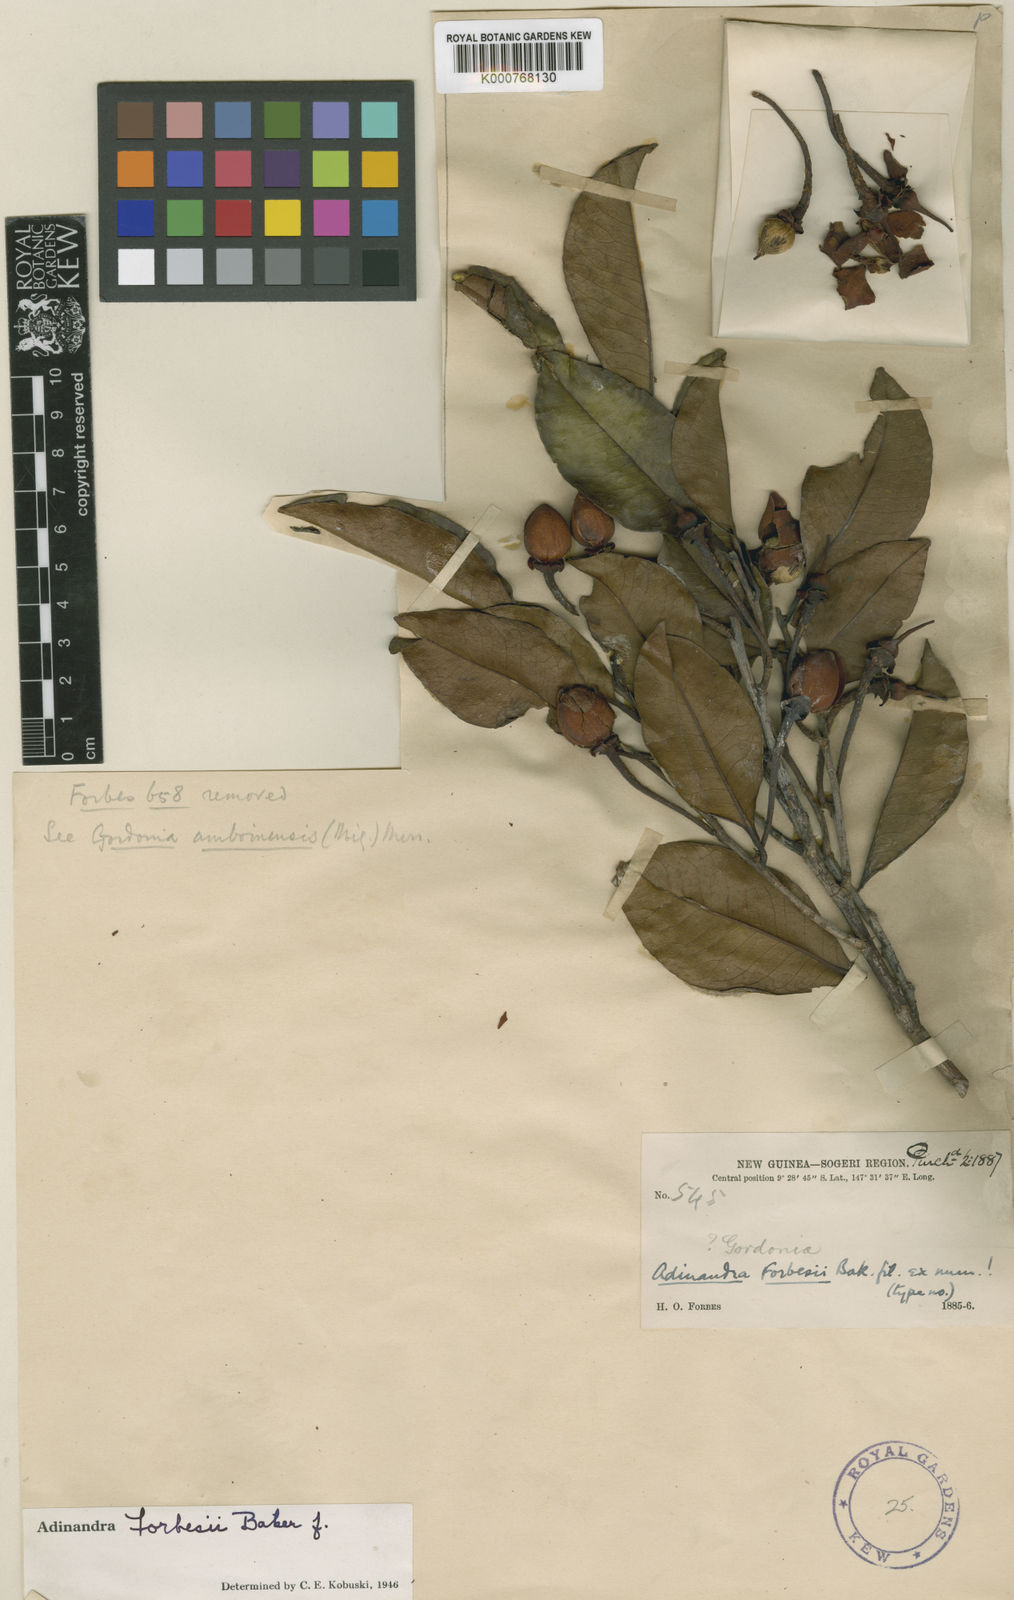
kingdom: Plantae
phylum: Tracheophyta
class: Magnoliopsida
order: Ericales
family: Pentaphylacaceae
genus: Adinandra
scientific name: Adinandra forbesii
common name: Oriomo redwood
